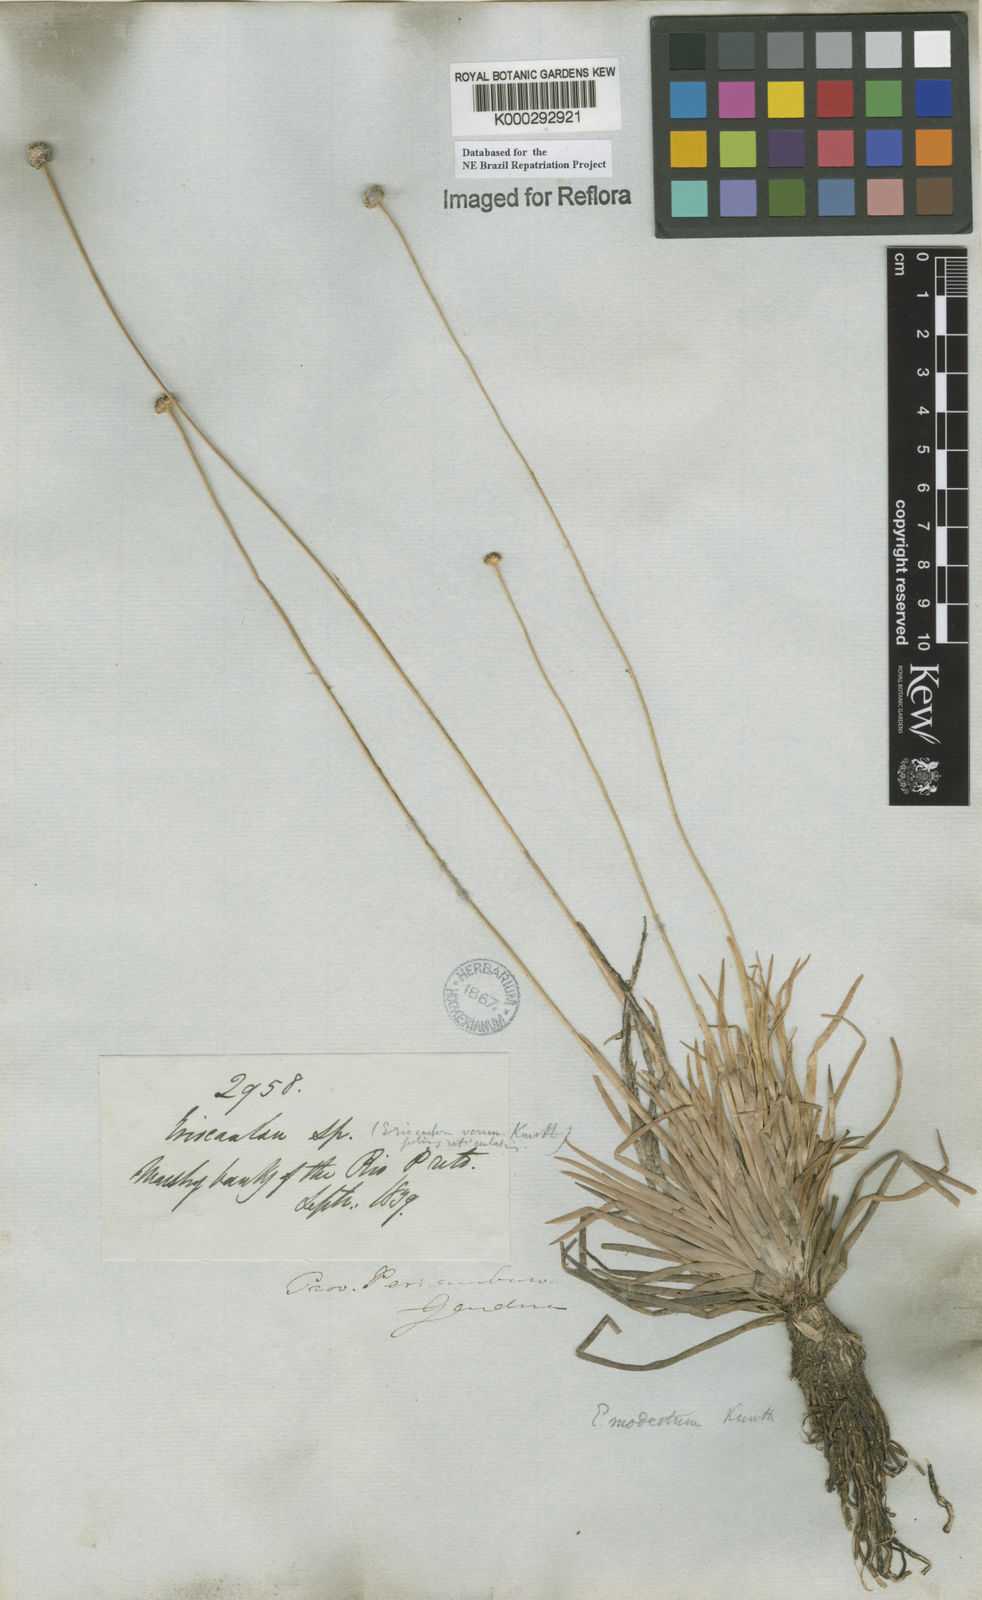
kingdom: Plantae
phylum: Tracheophyta
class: Liliopsida
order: Poales
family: Eriocaulaceae
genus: Eriocaulon
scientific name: Eriocaulon modestum
